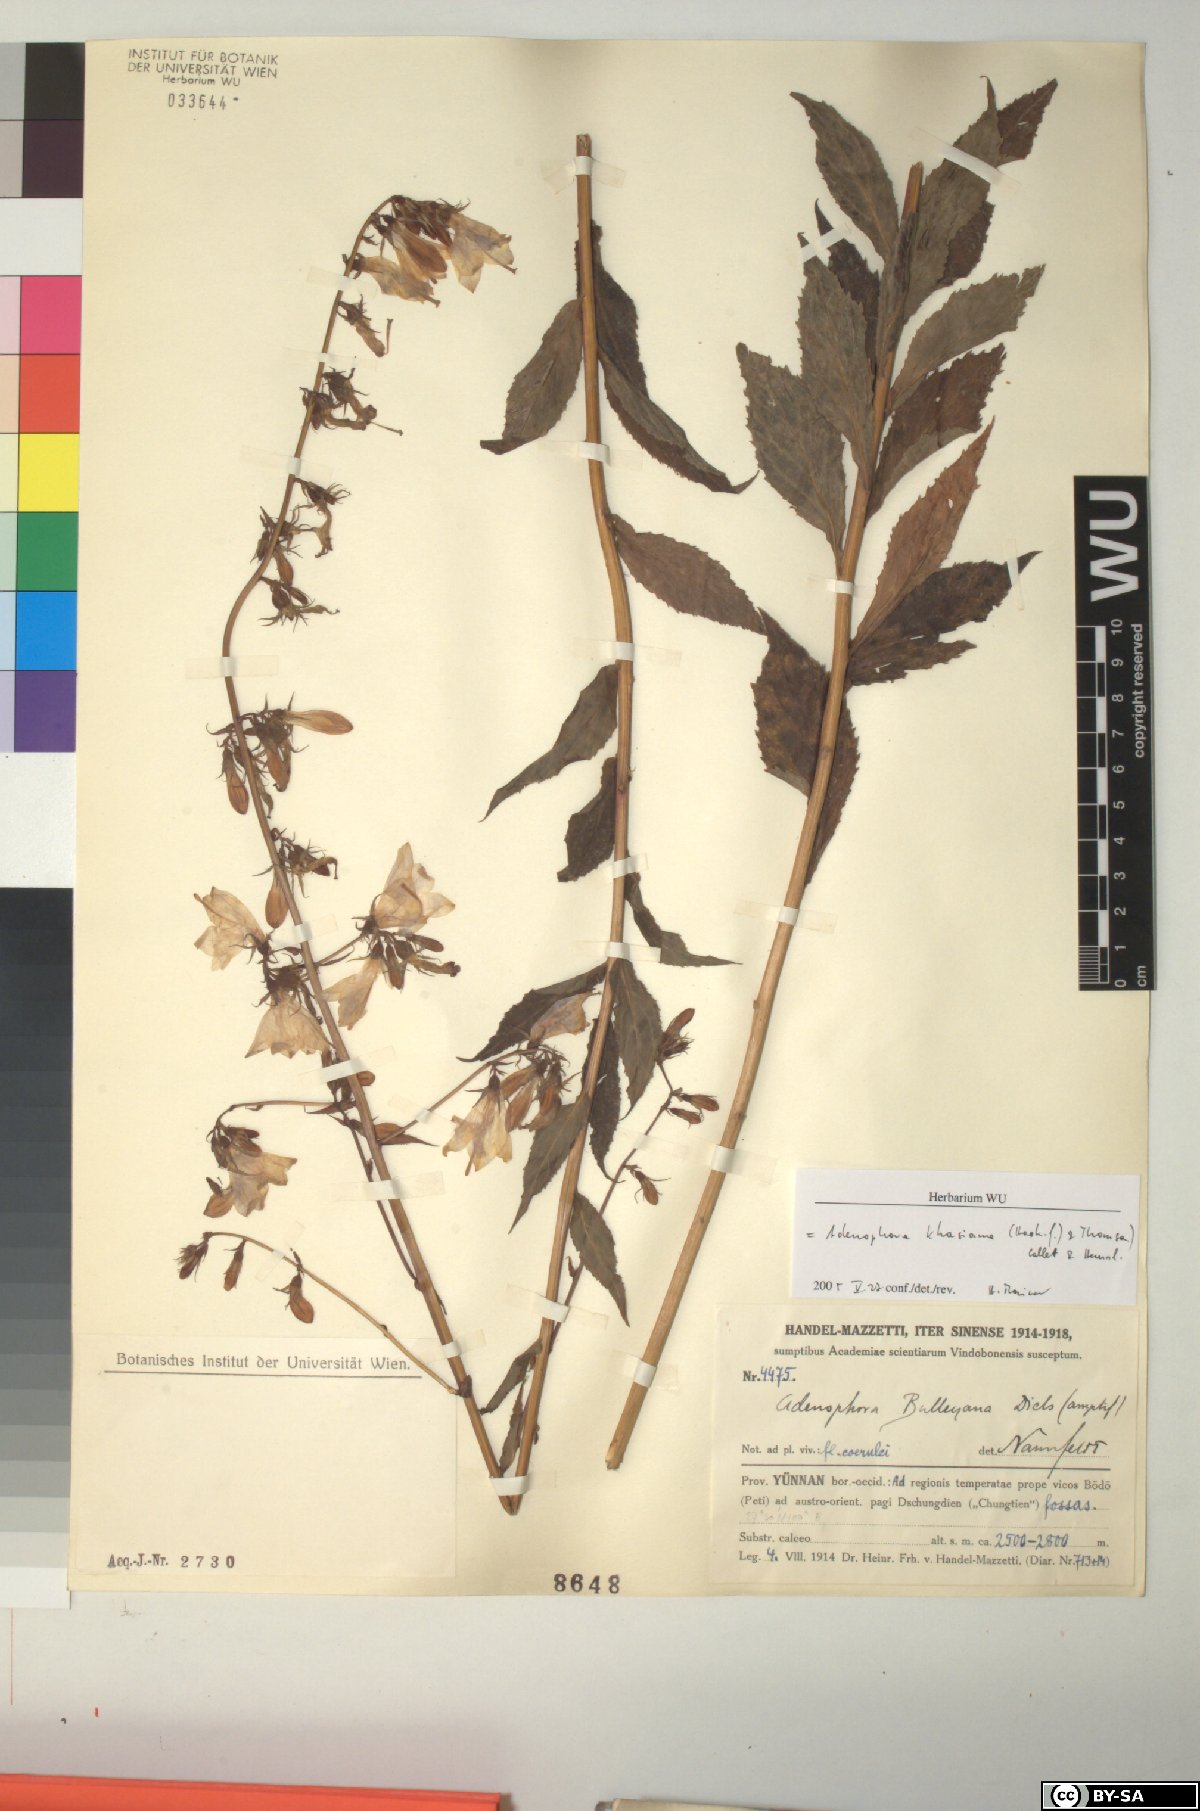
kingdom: Plantae
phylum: Tracheophyta
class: Magnoliopsida
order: Asterales
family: Campanulaceae
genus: Adenophora
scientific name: Adenophora khasiana
